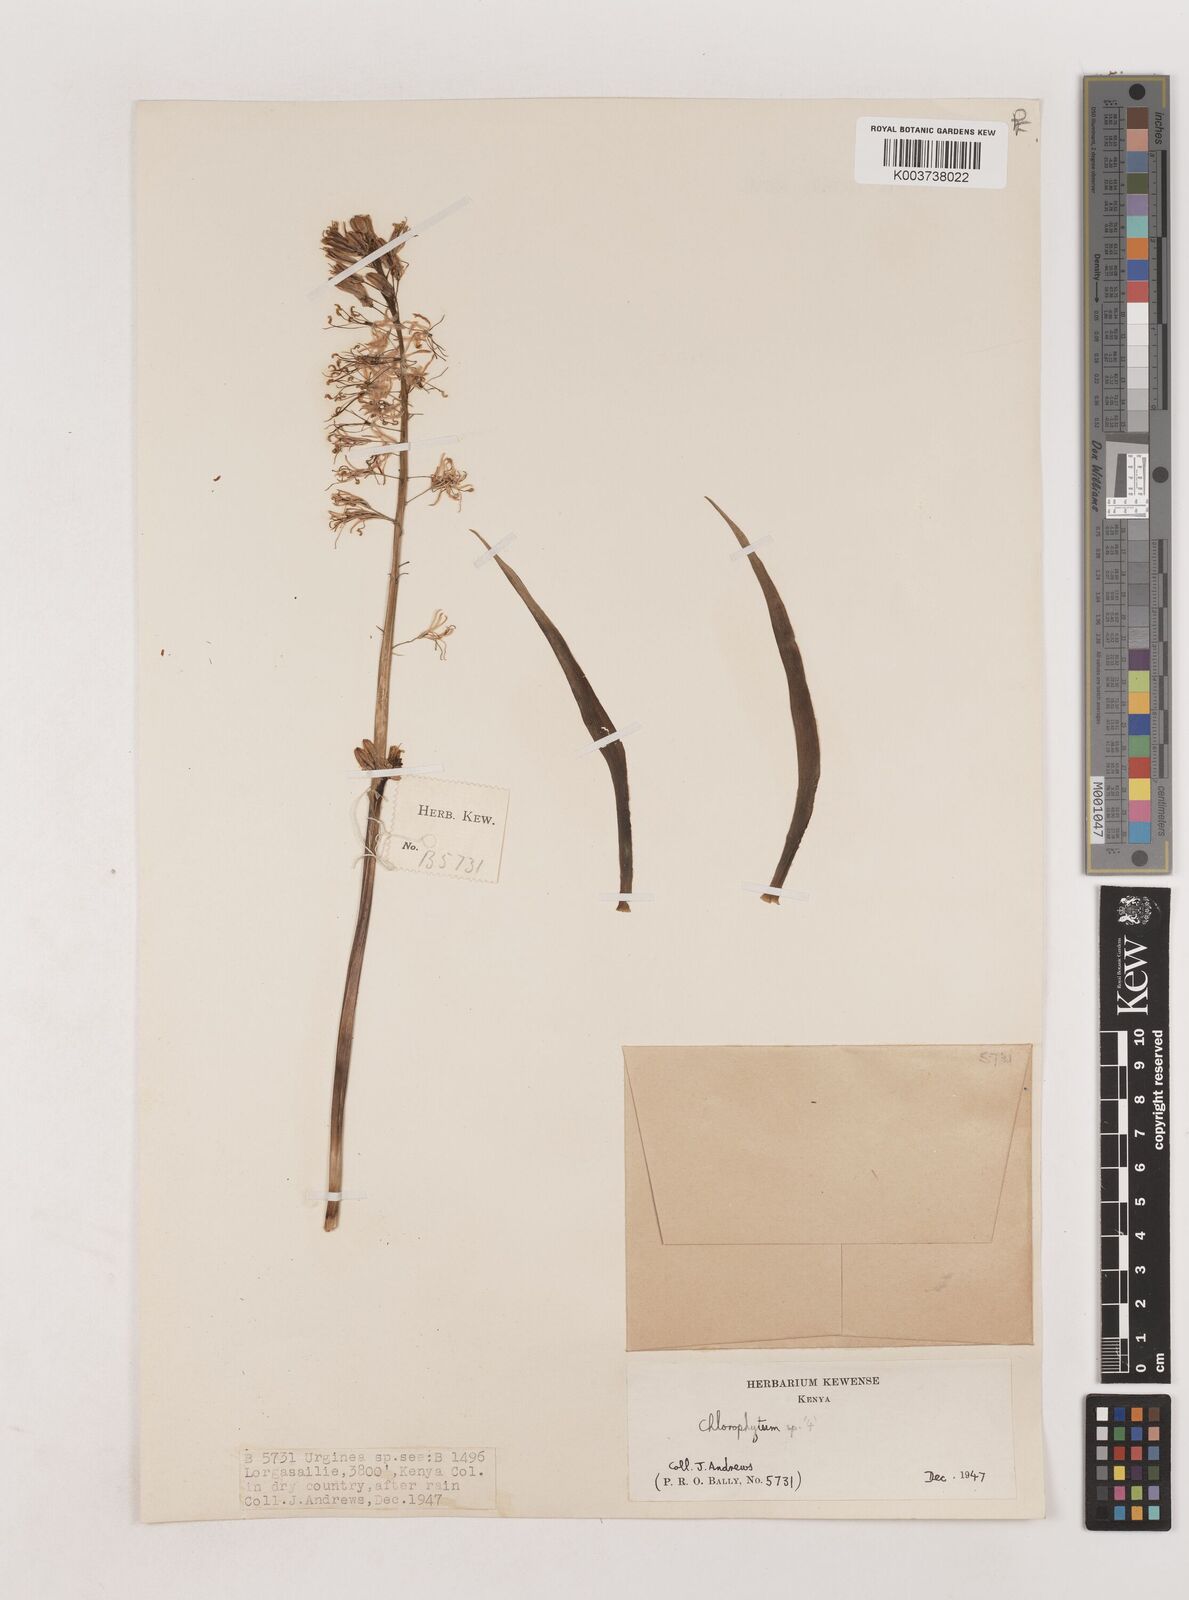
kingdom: Plantae
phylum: Tracheophyta
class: Liliopsida
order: Asparagales
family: Asparagaceae
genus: Chlorophytum
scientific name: Chlorophytum somaliense
